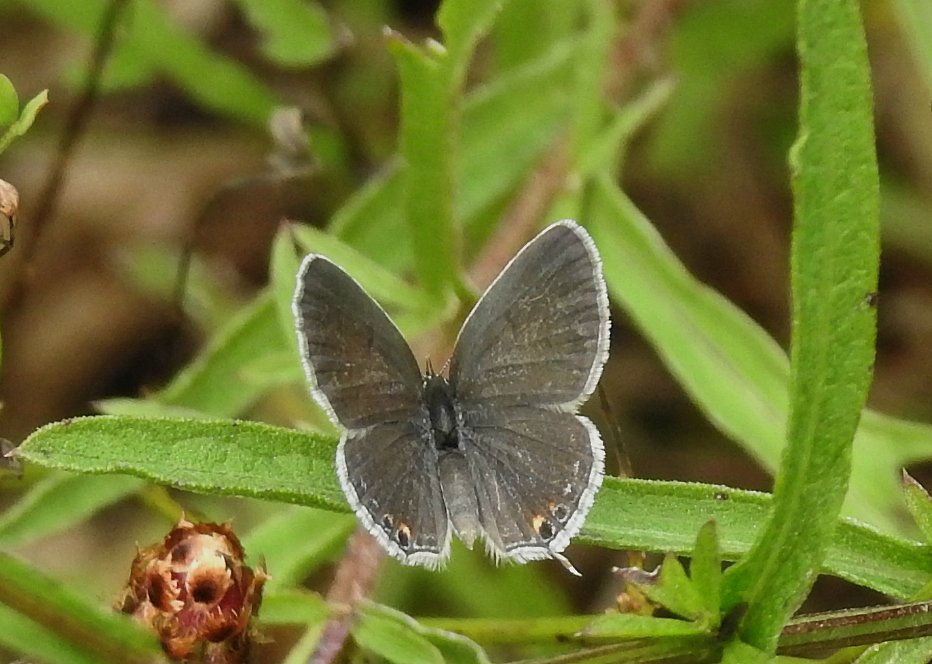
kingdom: Animalia
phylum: Arthropoda
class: Insecta
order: Lepidoptera
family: Lycaenidae
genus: Elkalyce
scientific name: Elkalyce comyntas
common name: Eastern Tailed-Blue
